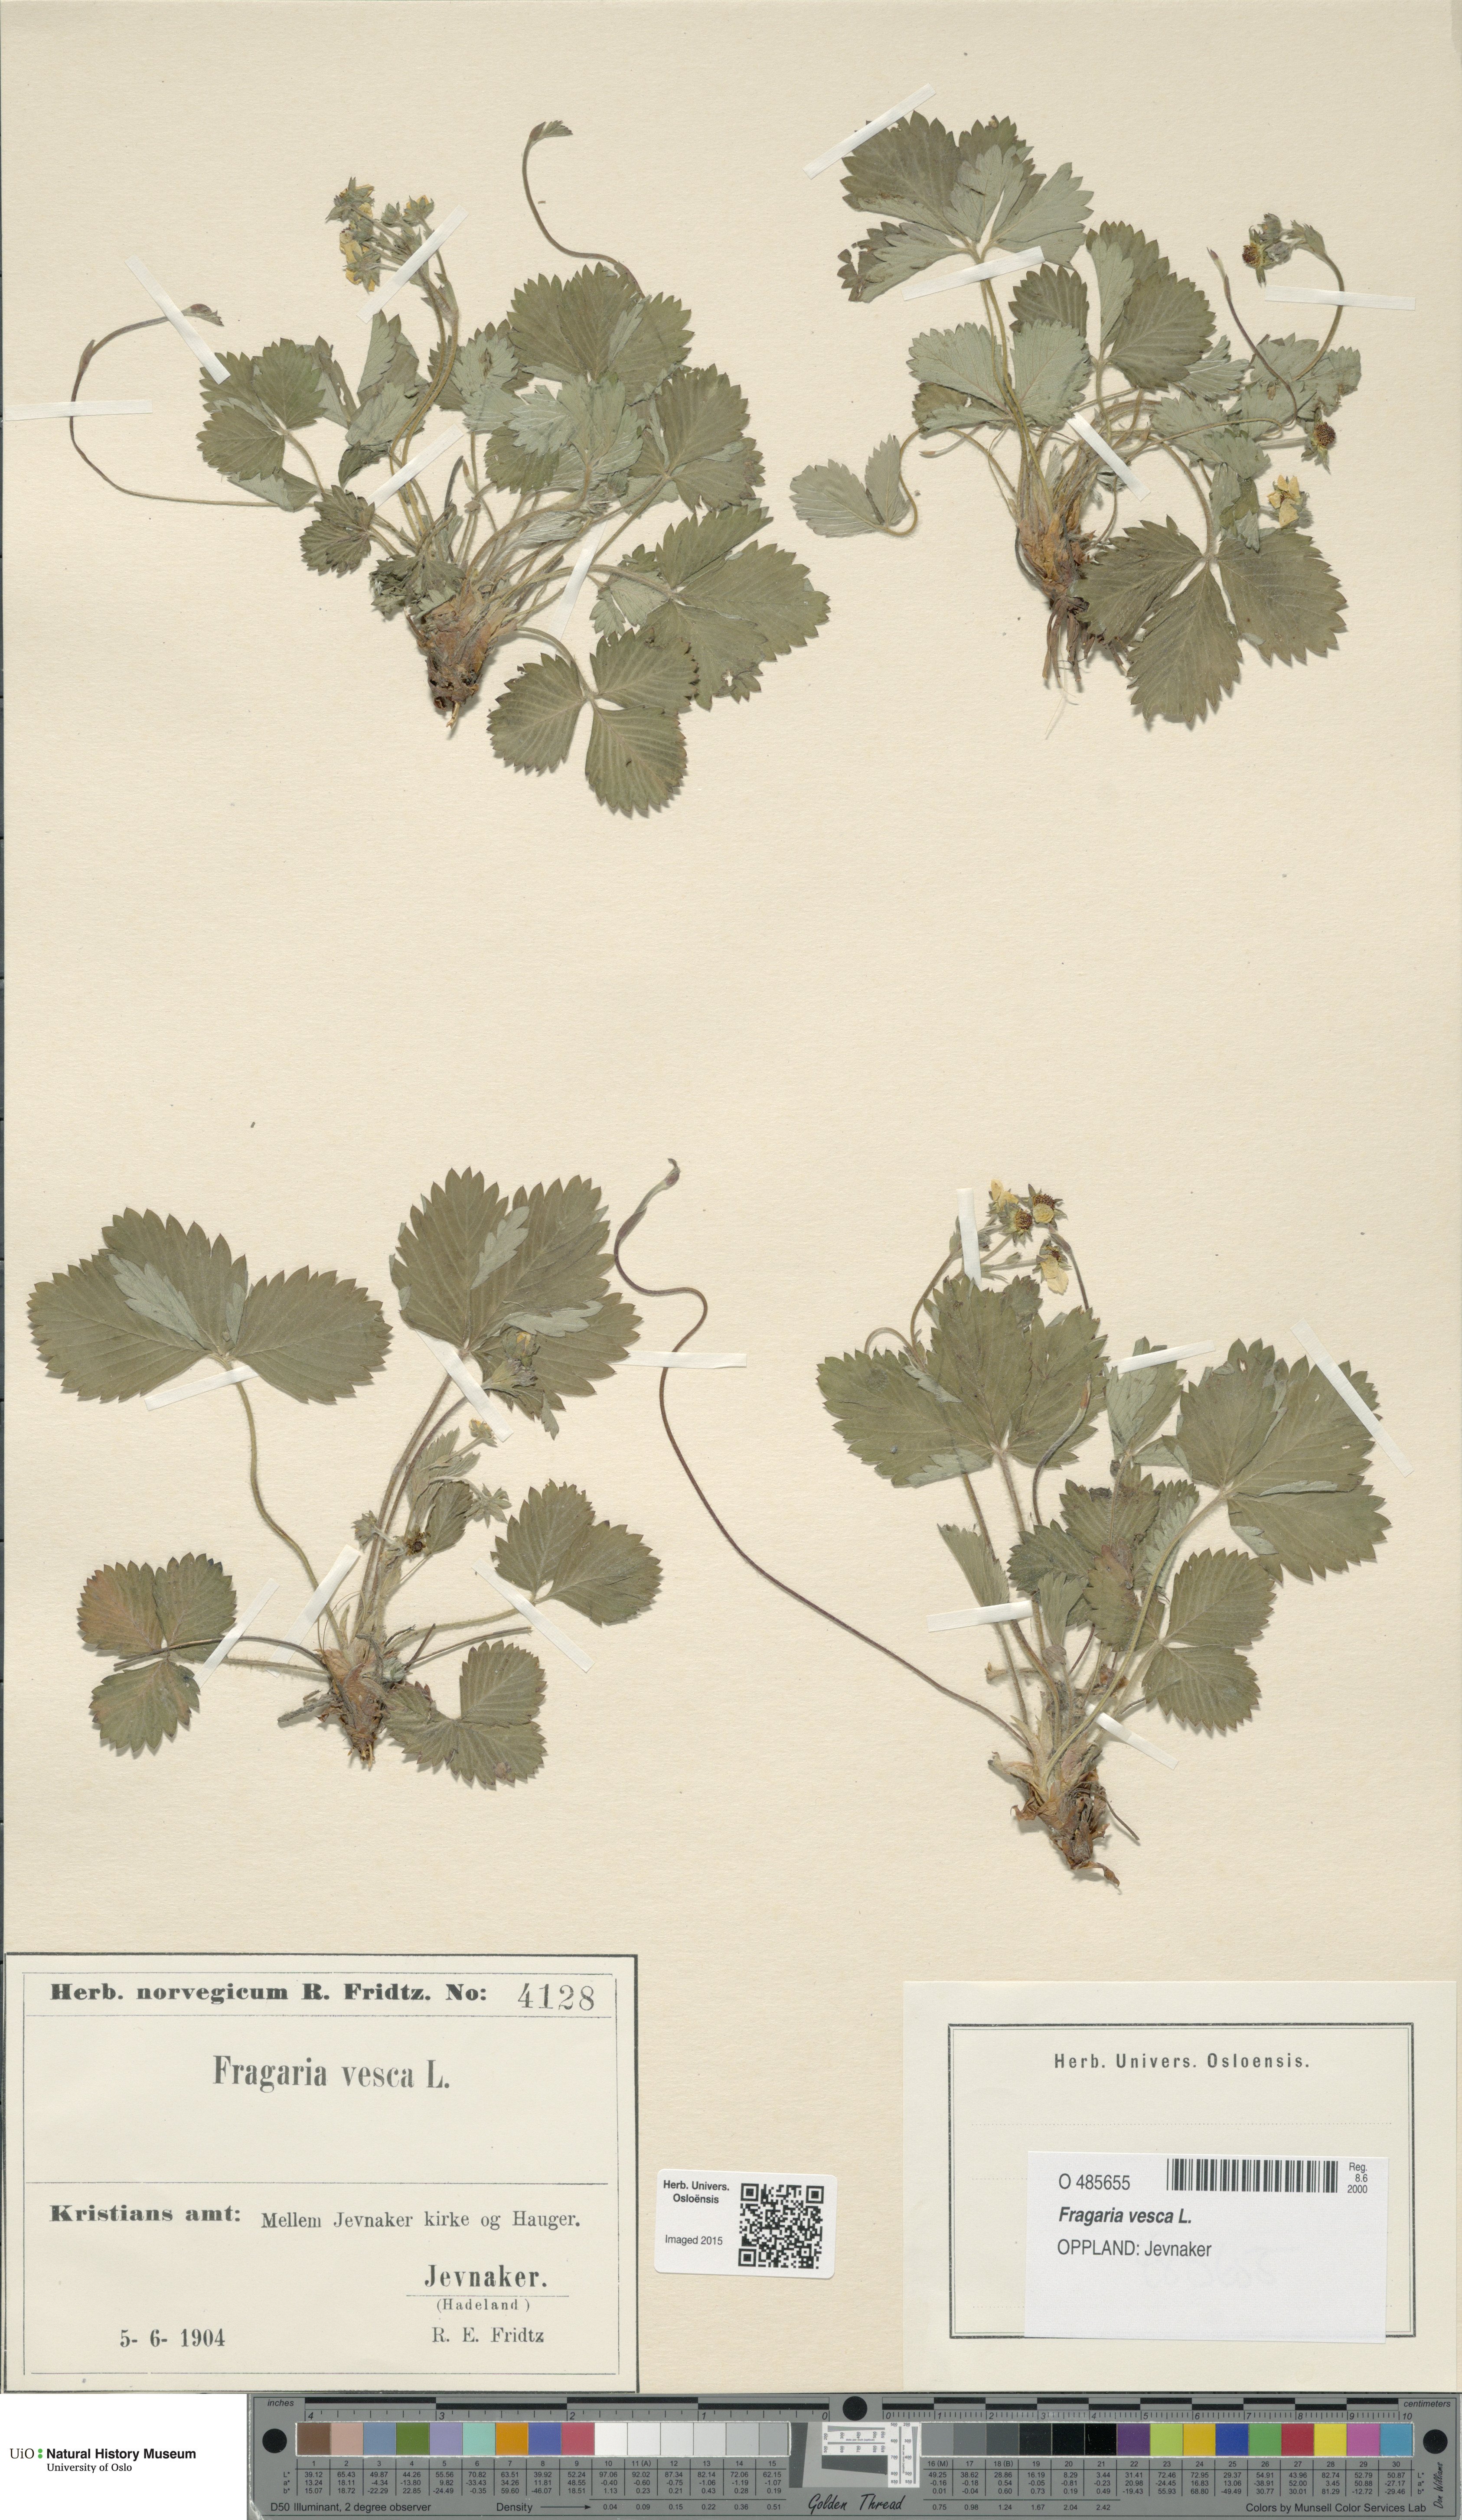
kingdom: Plantae
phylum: Tracheophyta
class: Magnoliopsida
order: Rosales
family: Rosaceae
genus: Fragaria
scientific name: Fragaria vesca
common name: Wild strawberry
